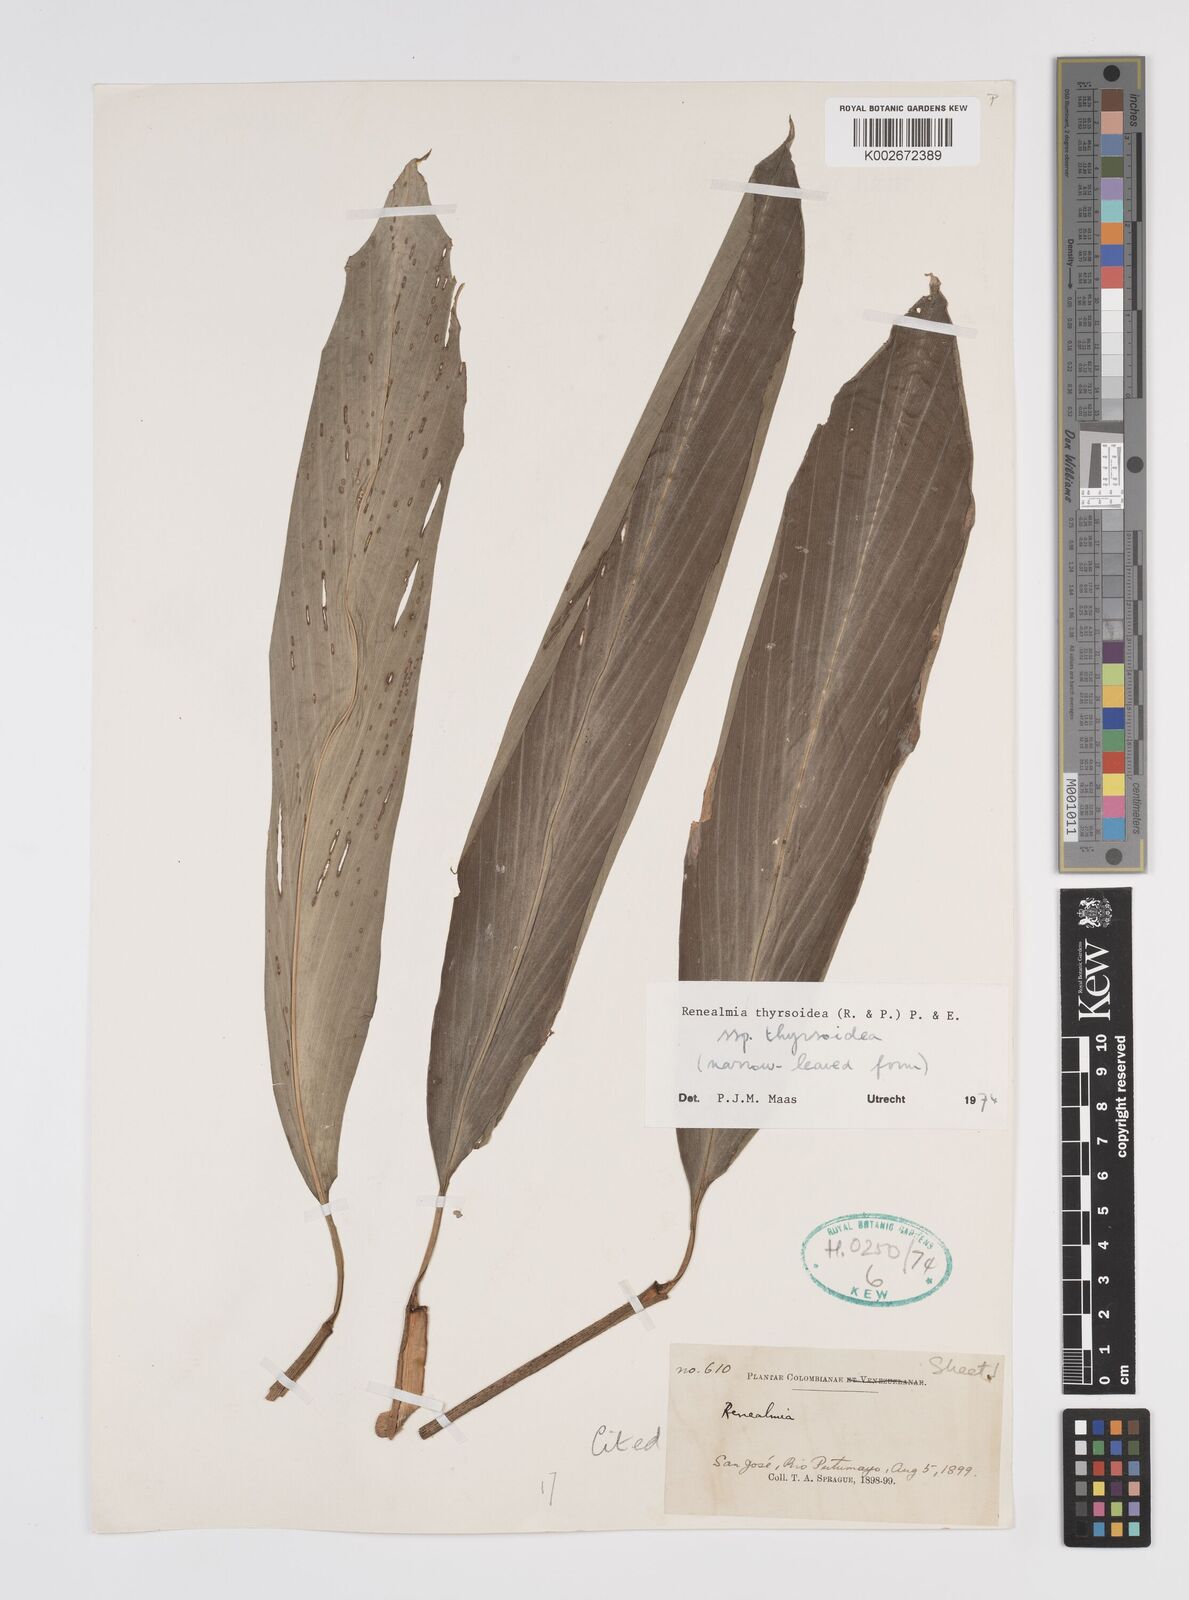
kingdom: Plantae
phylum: Tracheophyta
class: Liliopsida
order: Zingiberales
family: Zingiberaceae
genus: Renealmia
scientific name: Renealmia thyrsoidea
